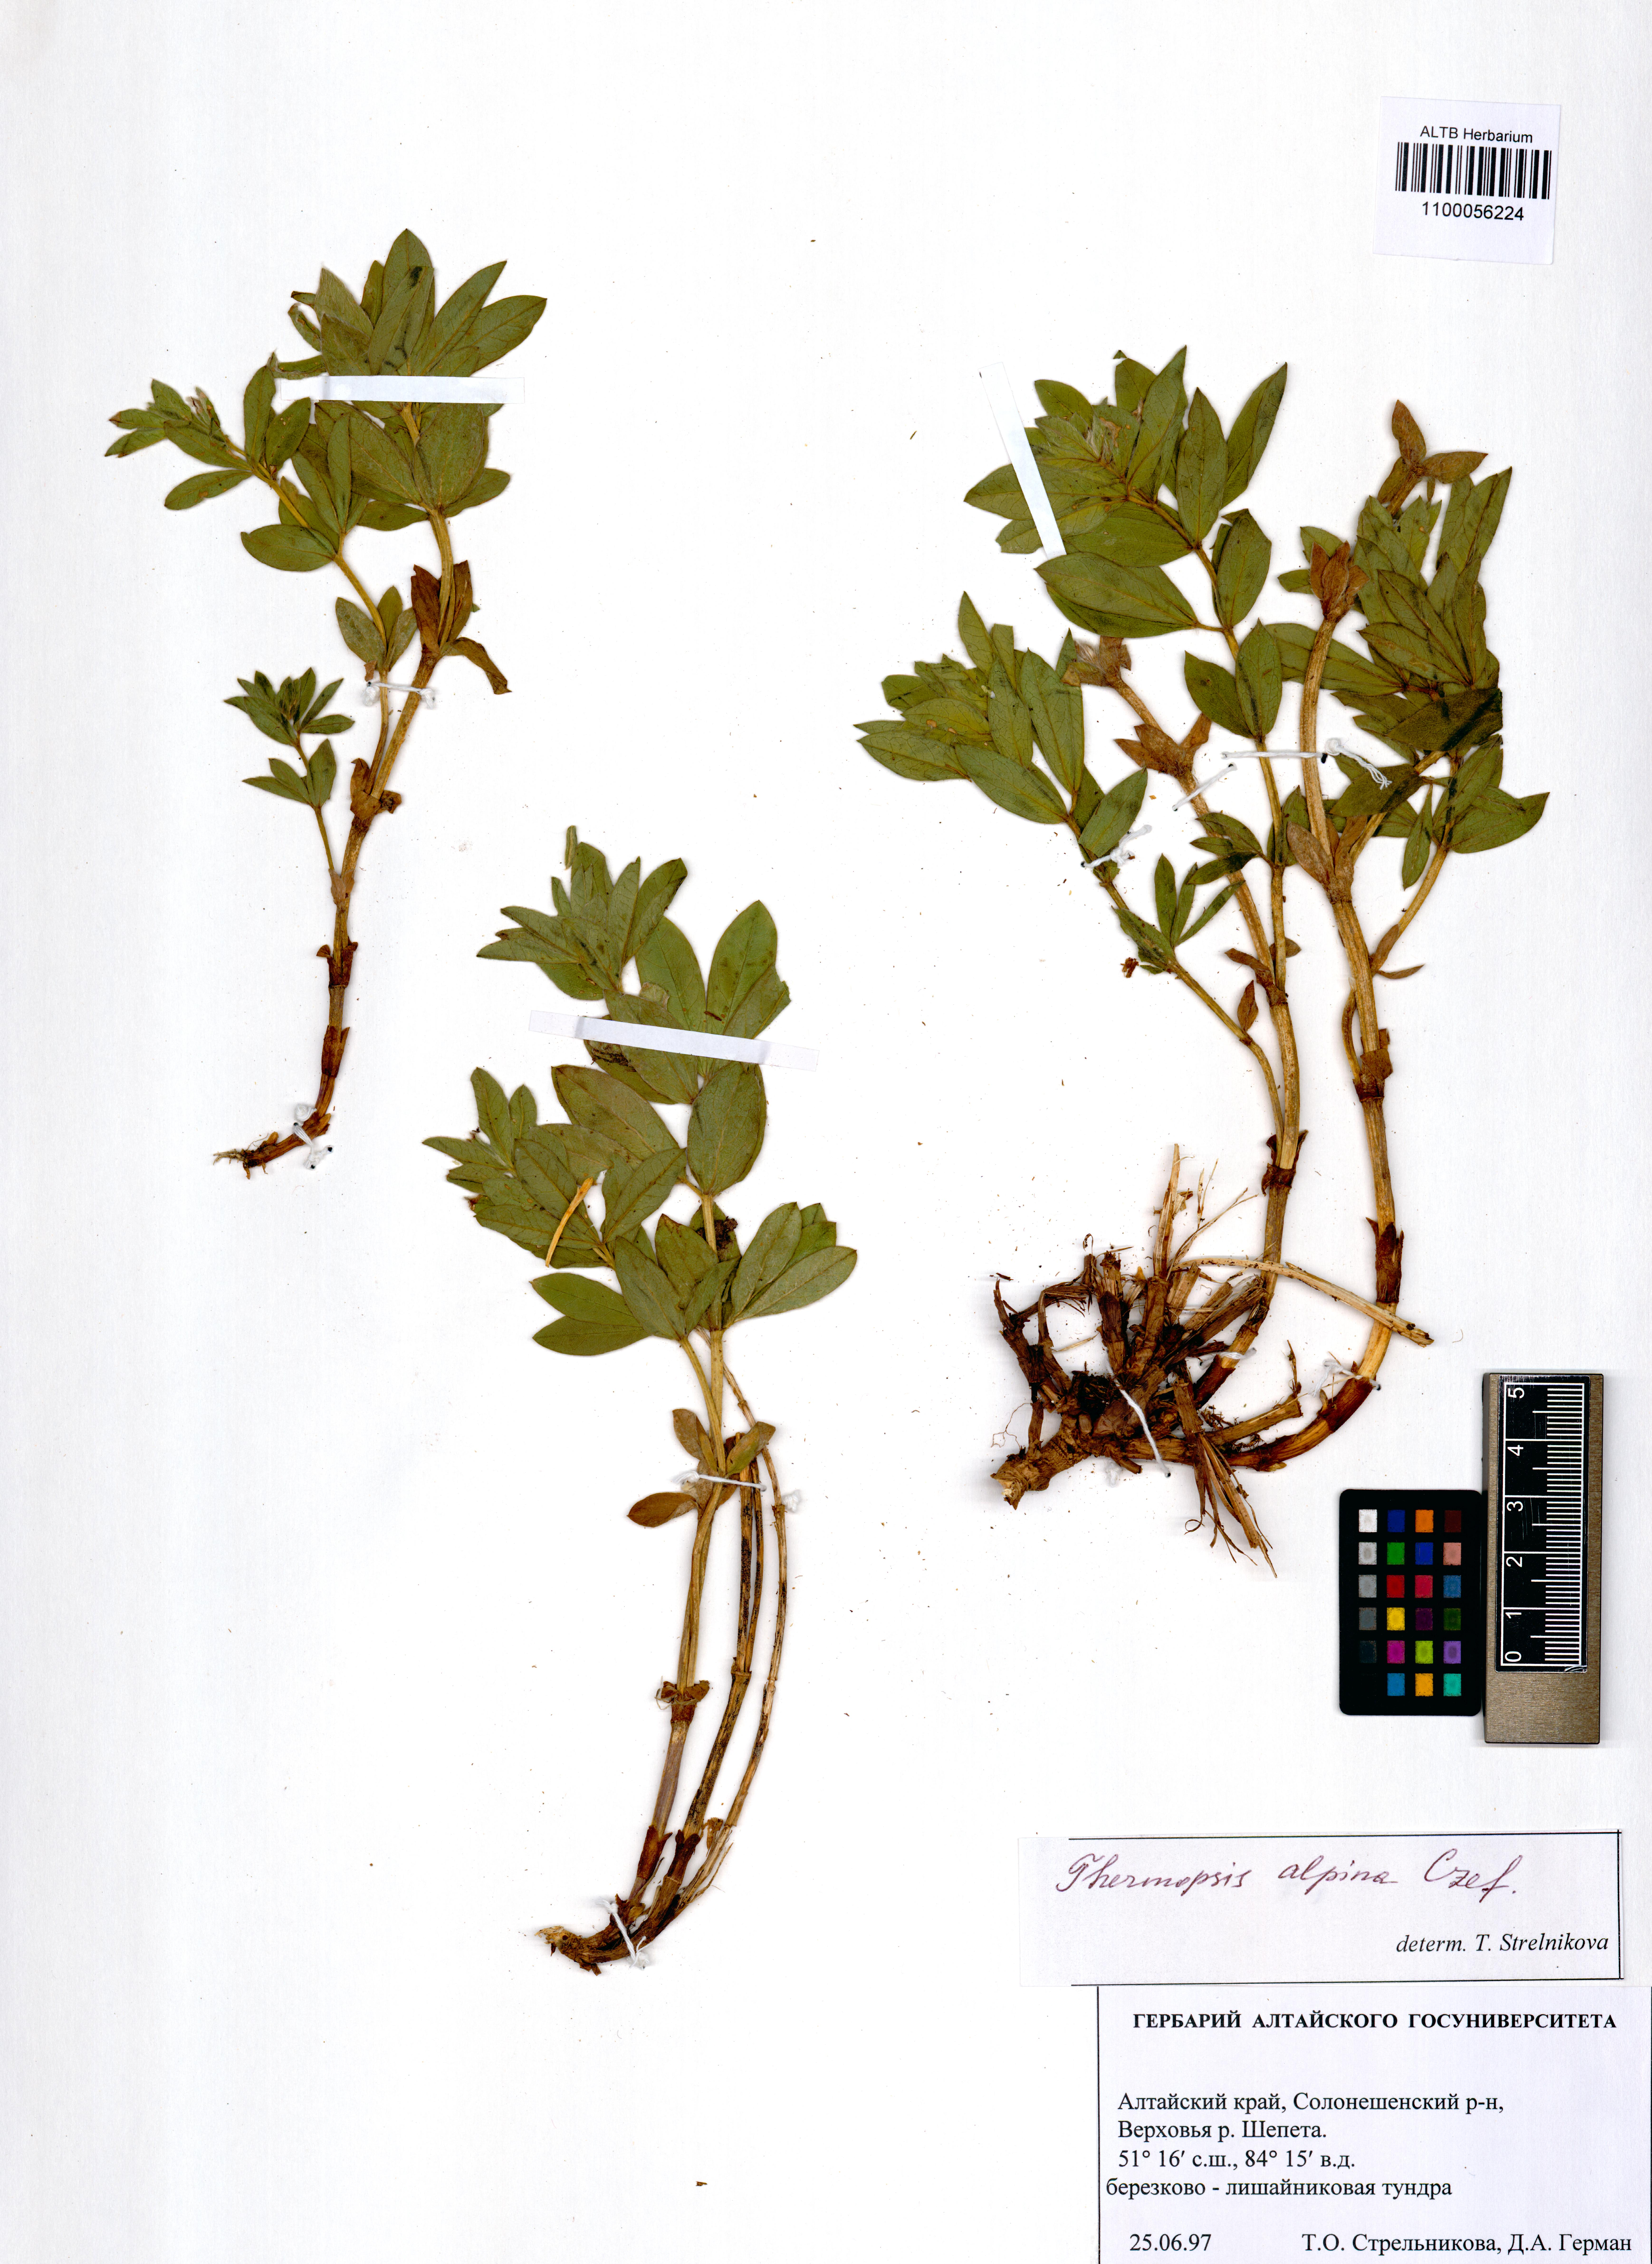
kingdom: Plantae
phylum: Tracheophyta
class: Magnoliopsida
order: Fabales
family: Fabaceae
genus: Thermopsis
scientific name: Thermopsis alpina
